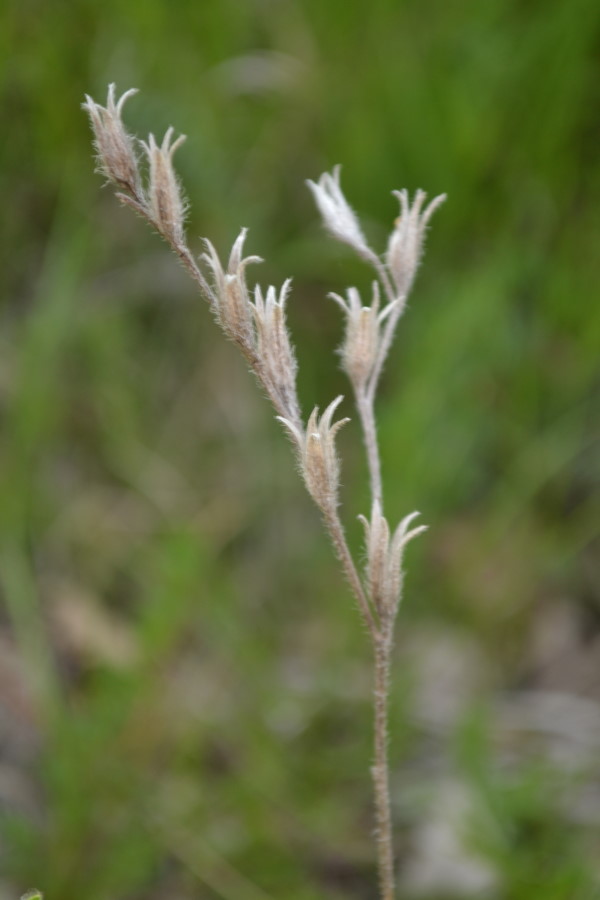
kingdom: Plantae
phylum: Tracheophyta
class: Magnoliopsida
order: Boraginales
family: Boraginaceae
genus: Onosma
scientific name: Onosma caucasica
